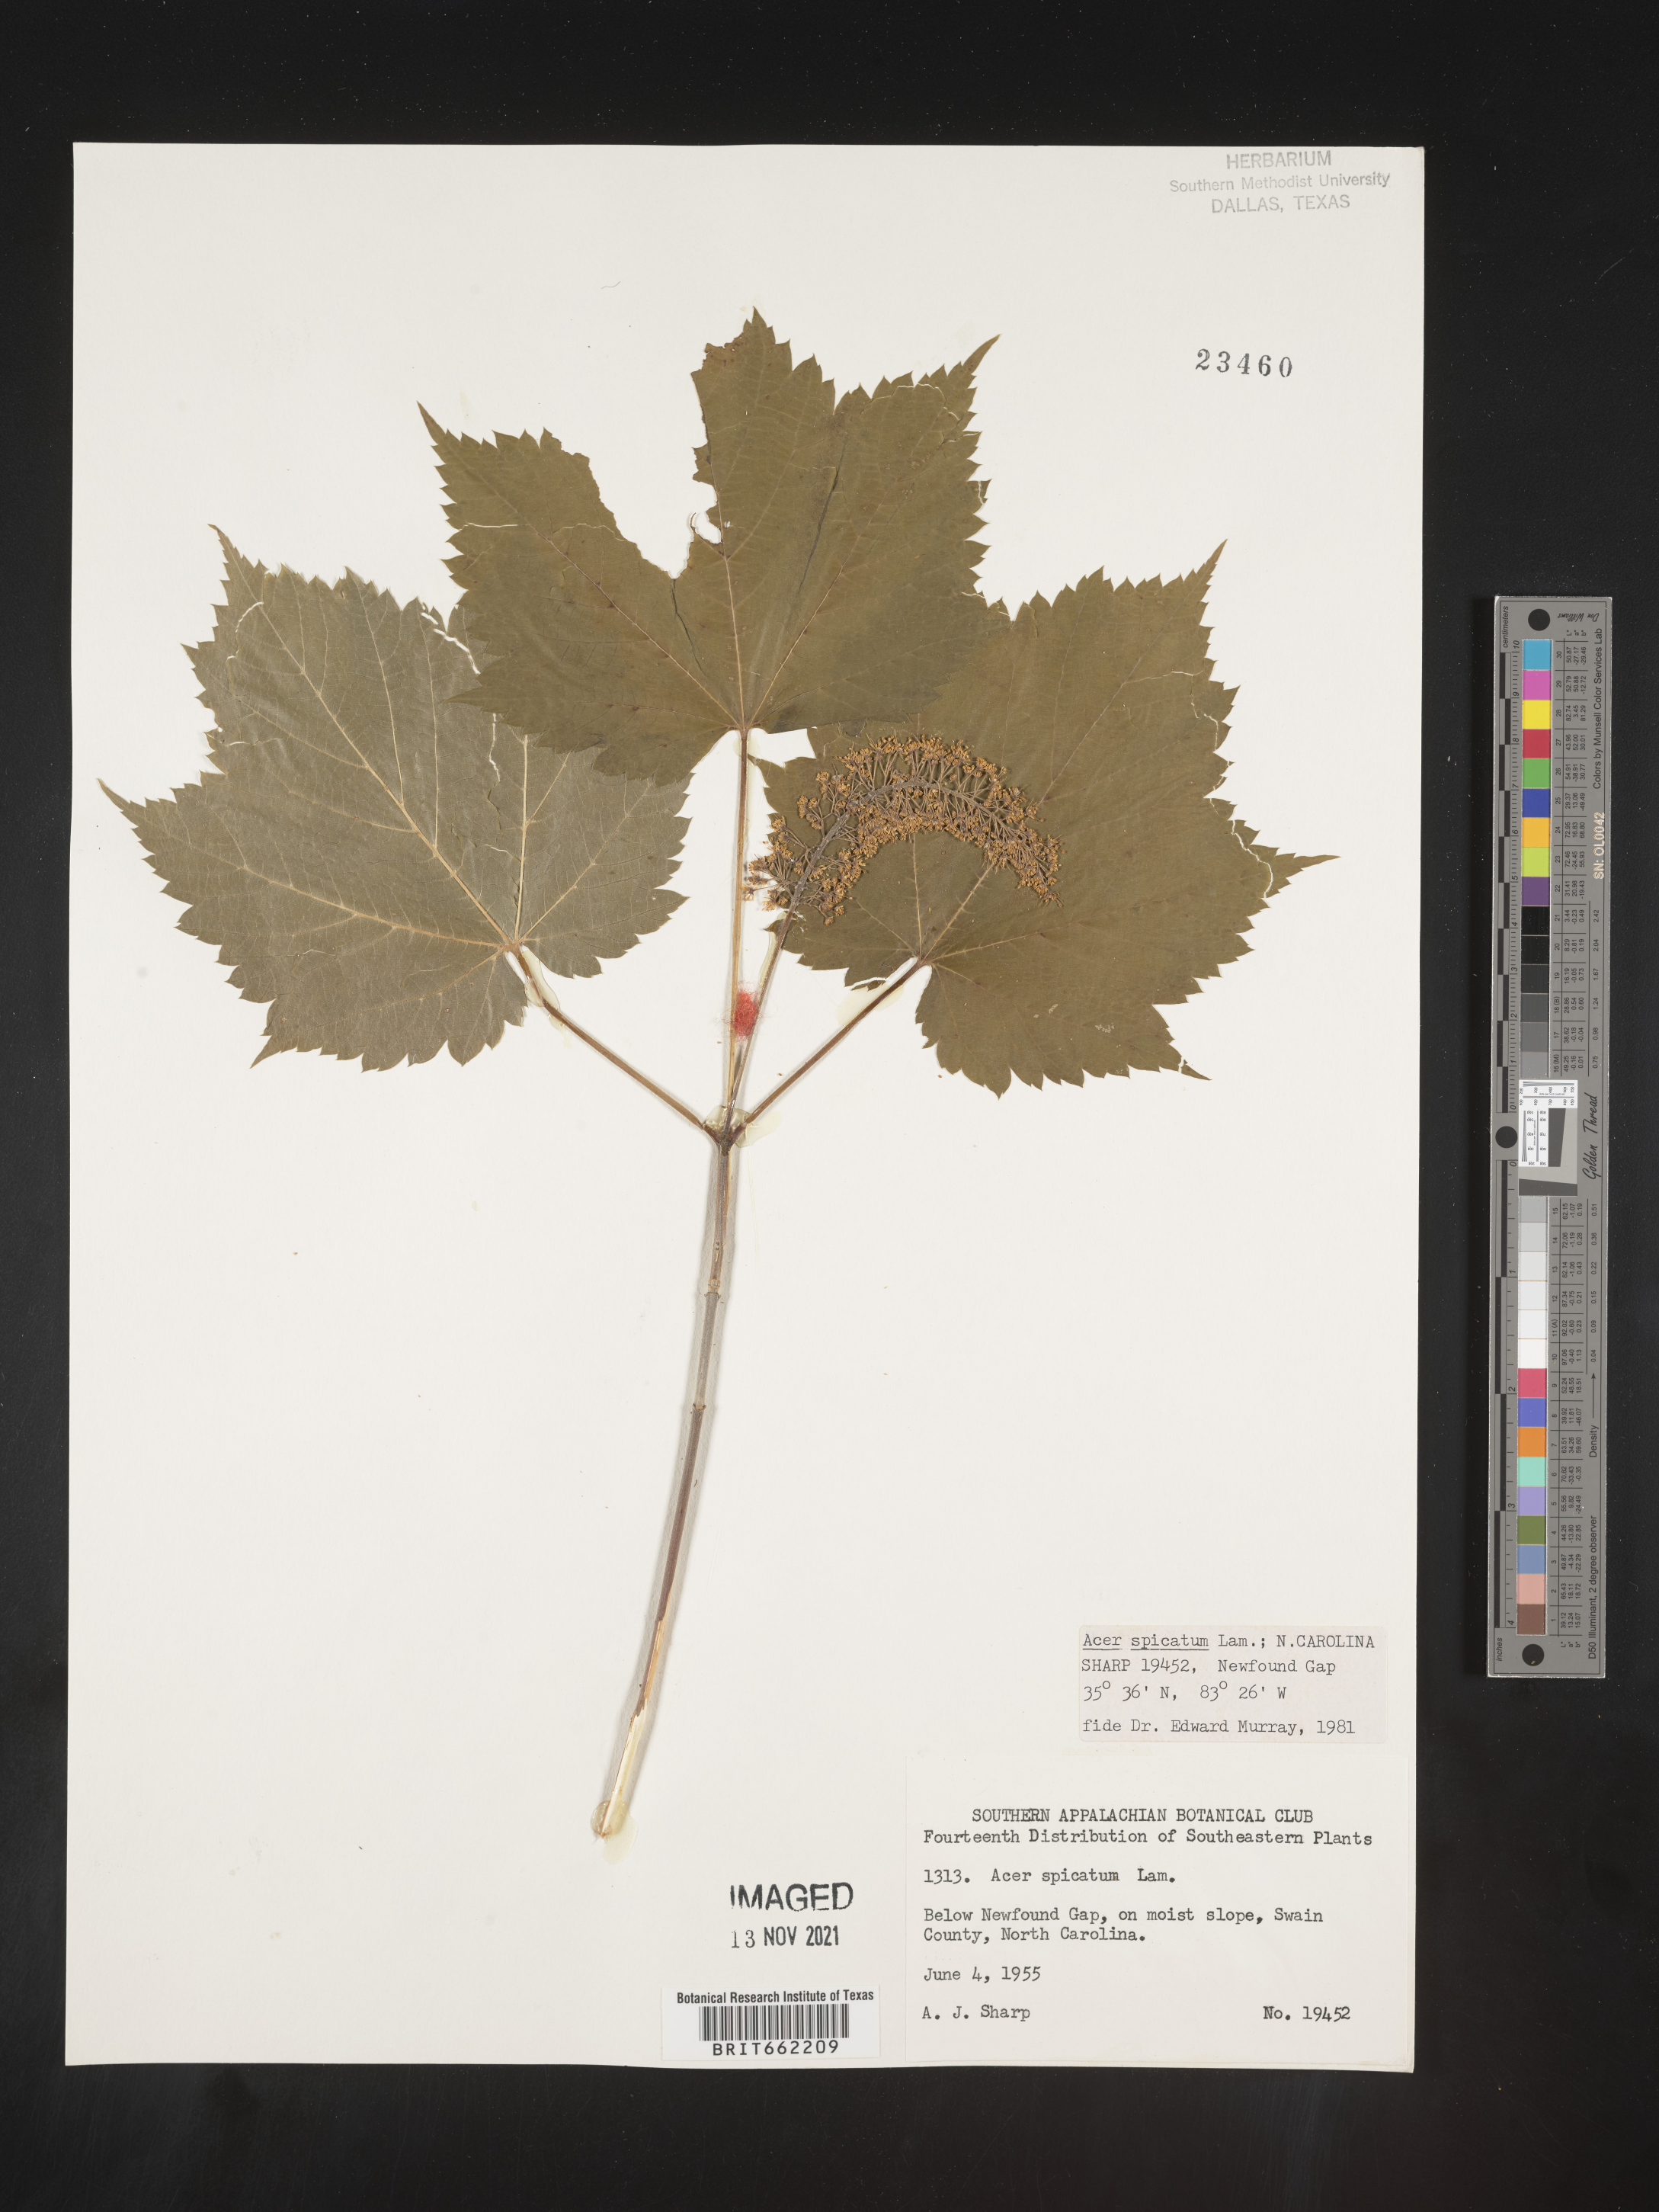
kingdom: Plantae
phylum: Tracheophyta
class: Magnoliopsida
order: Sapindales
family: Sapindaceae
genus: Acer
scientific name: Acer spicatum
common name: Mountain maple
